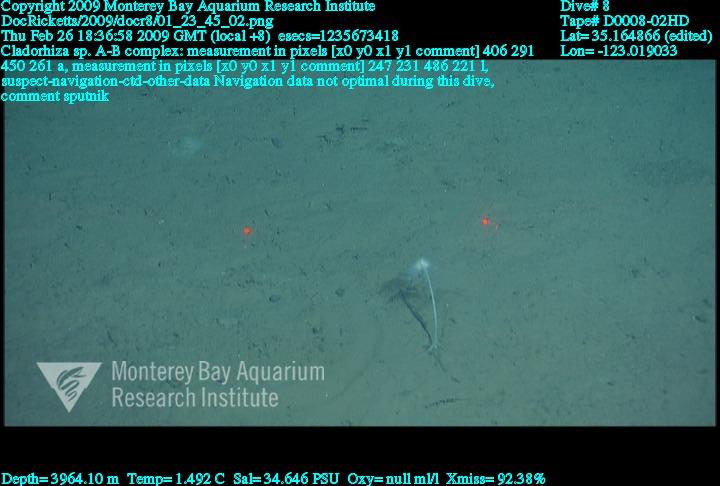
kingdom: Animalia
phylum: Porifera
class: Demospongiae
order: Poecilosclerida
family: Cladorhizidae
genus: Cladorhiza
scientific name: Cladorhiza
